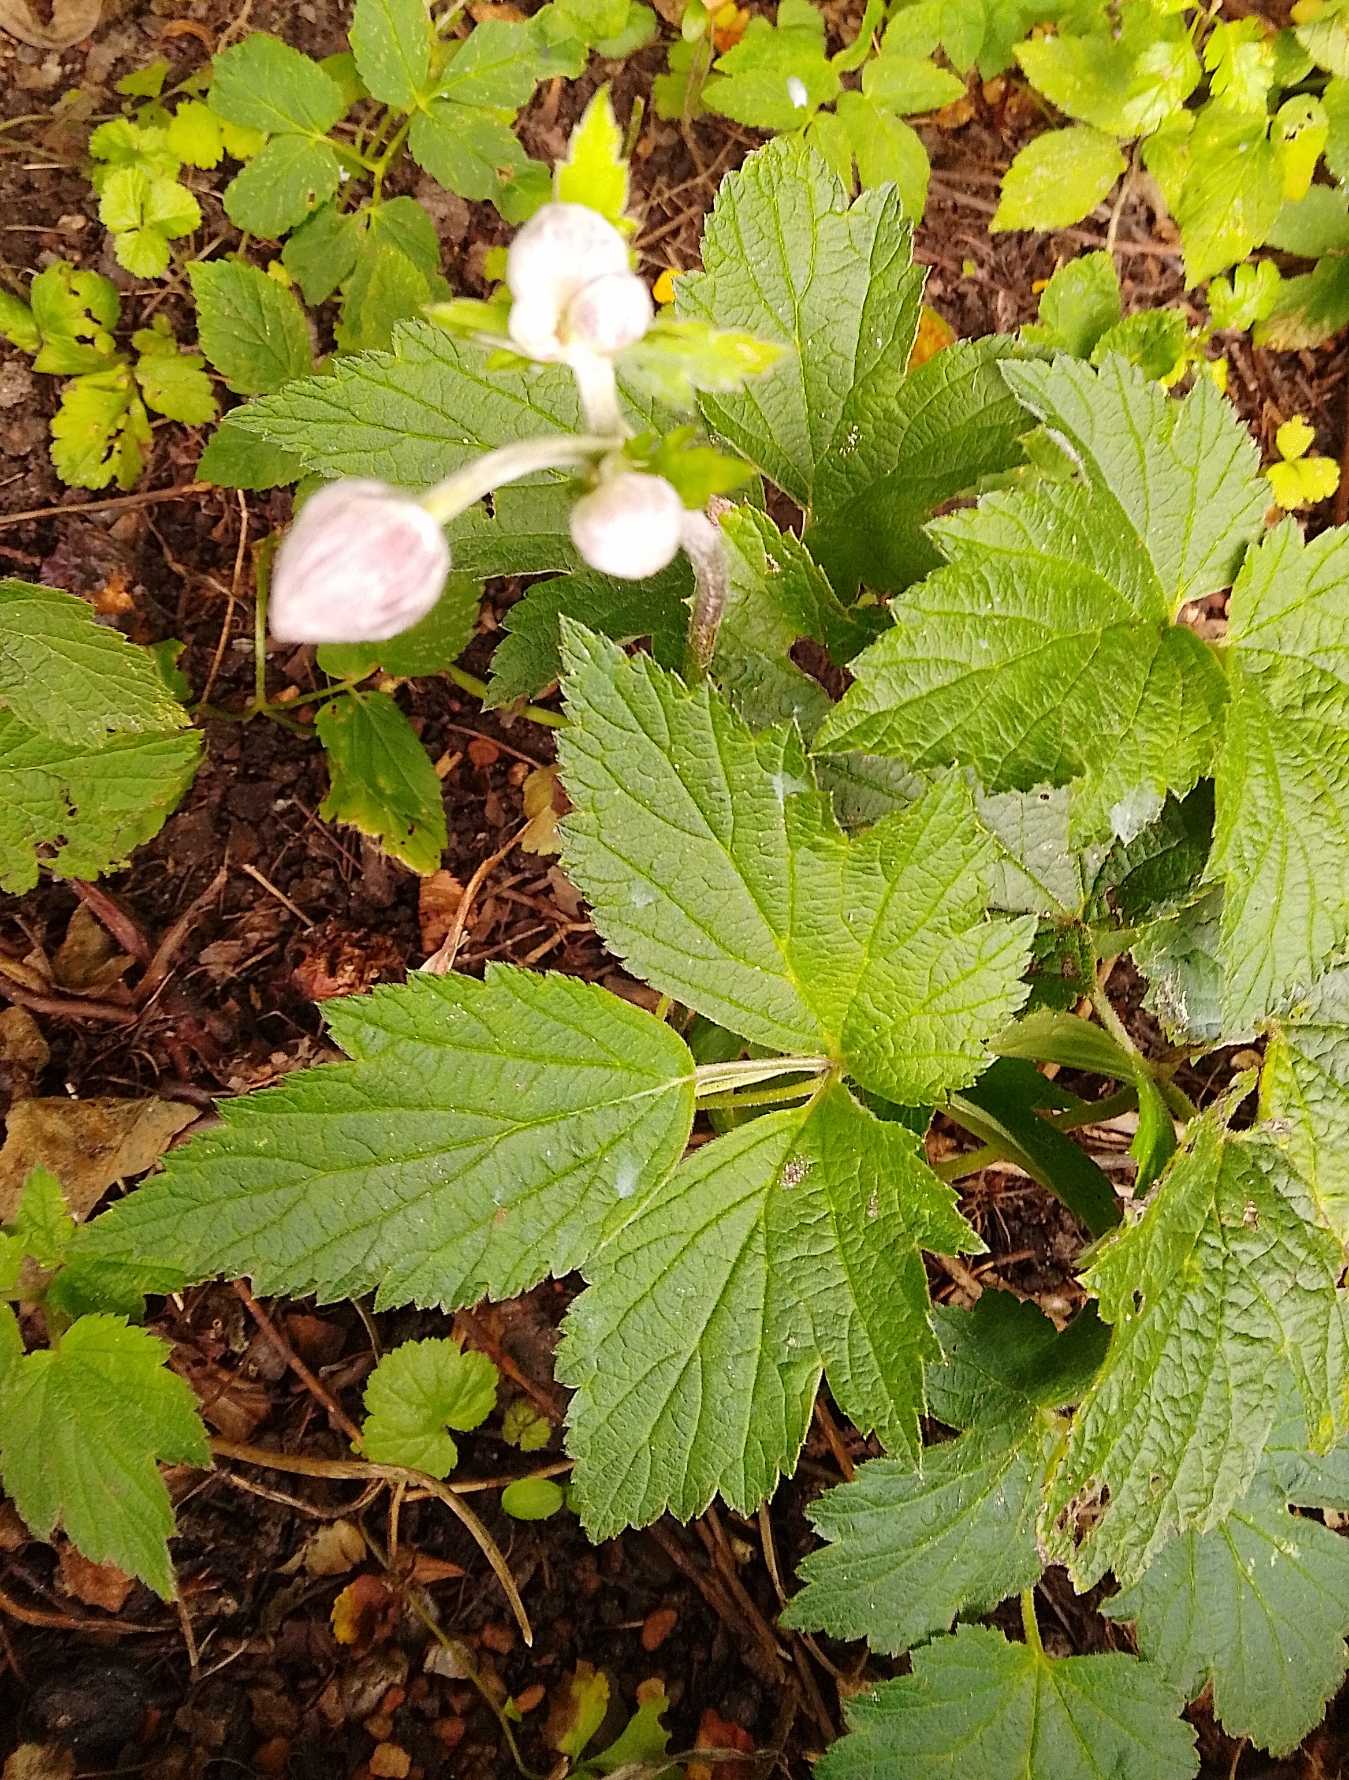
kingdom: Plantae
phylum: Tracheophyta
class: Magnoliopsida
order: Ranunculales
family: Ranunculaceae
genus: Eriocapitella
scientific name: Eriocapitella hupehensis
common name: Høst-anemone
